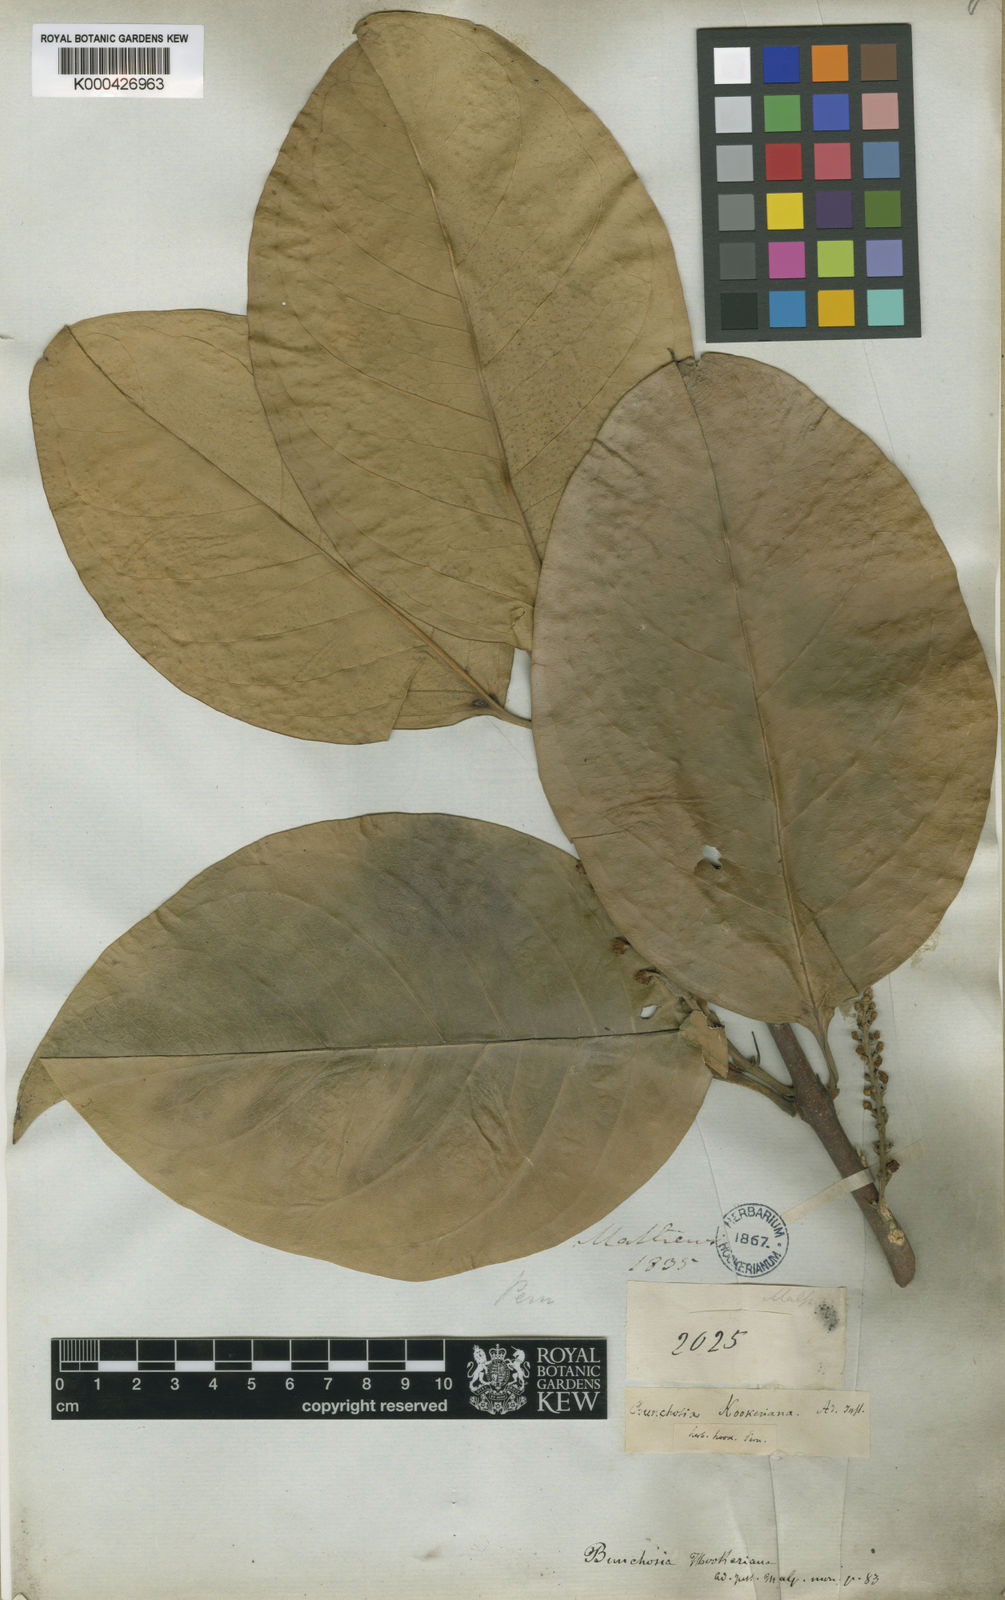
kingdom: Plantae
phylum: Tracheophyta
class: Magnoliopsida
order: Malpighiales
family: Malpighiaceae
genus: Bunchosia
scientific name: Bunchosia hookeriana
